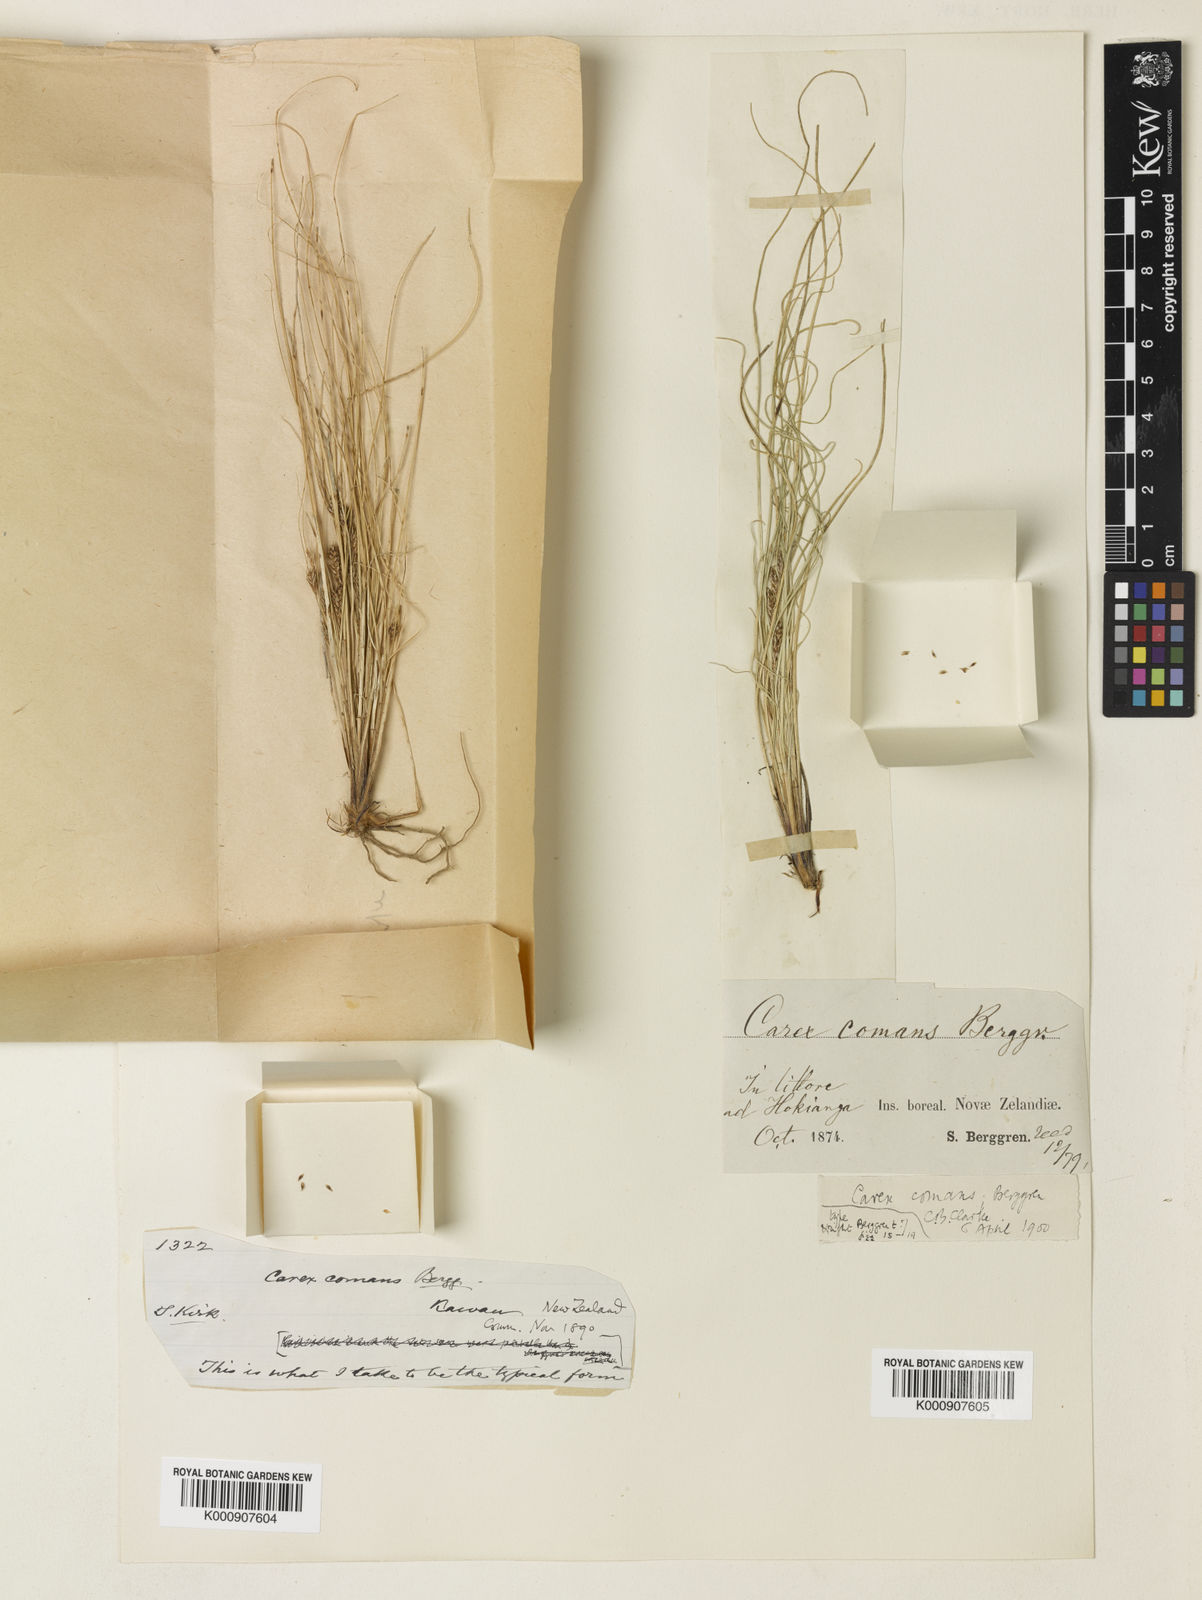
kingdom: Plantae
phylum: Tracheophyta
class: Liliopsida
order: Poales
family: Cyperaceae
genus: Carex
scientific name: Carex comans
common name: Longwood tussock
